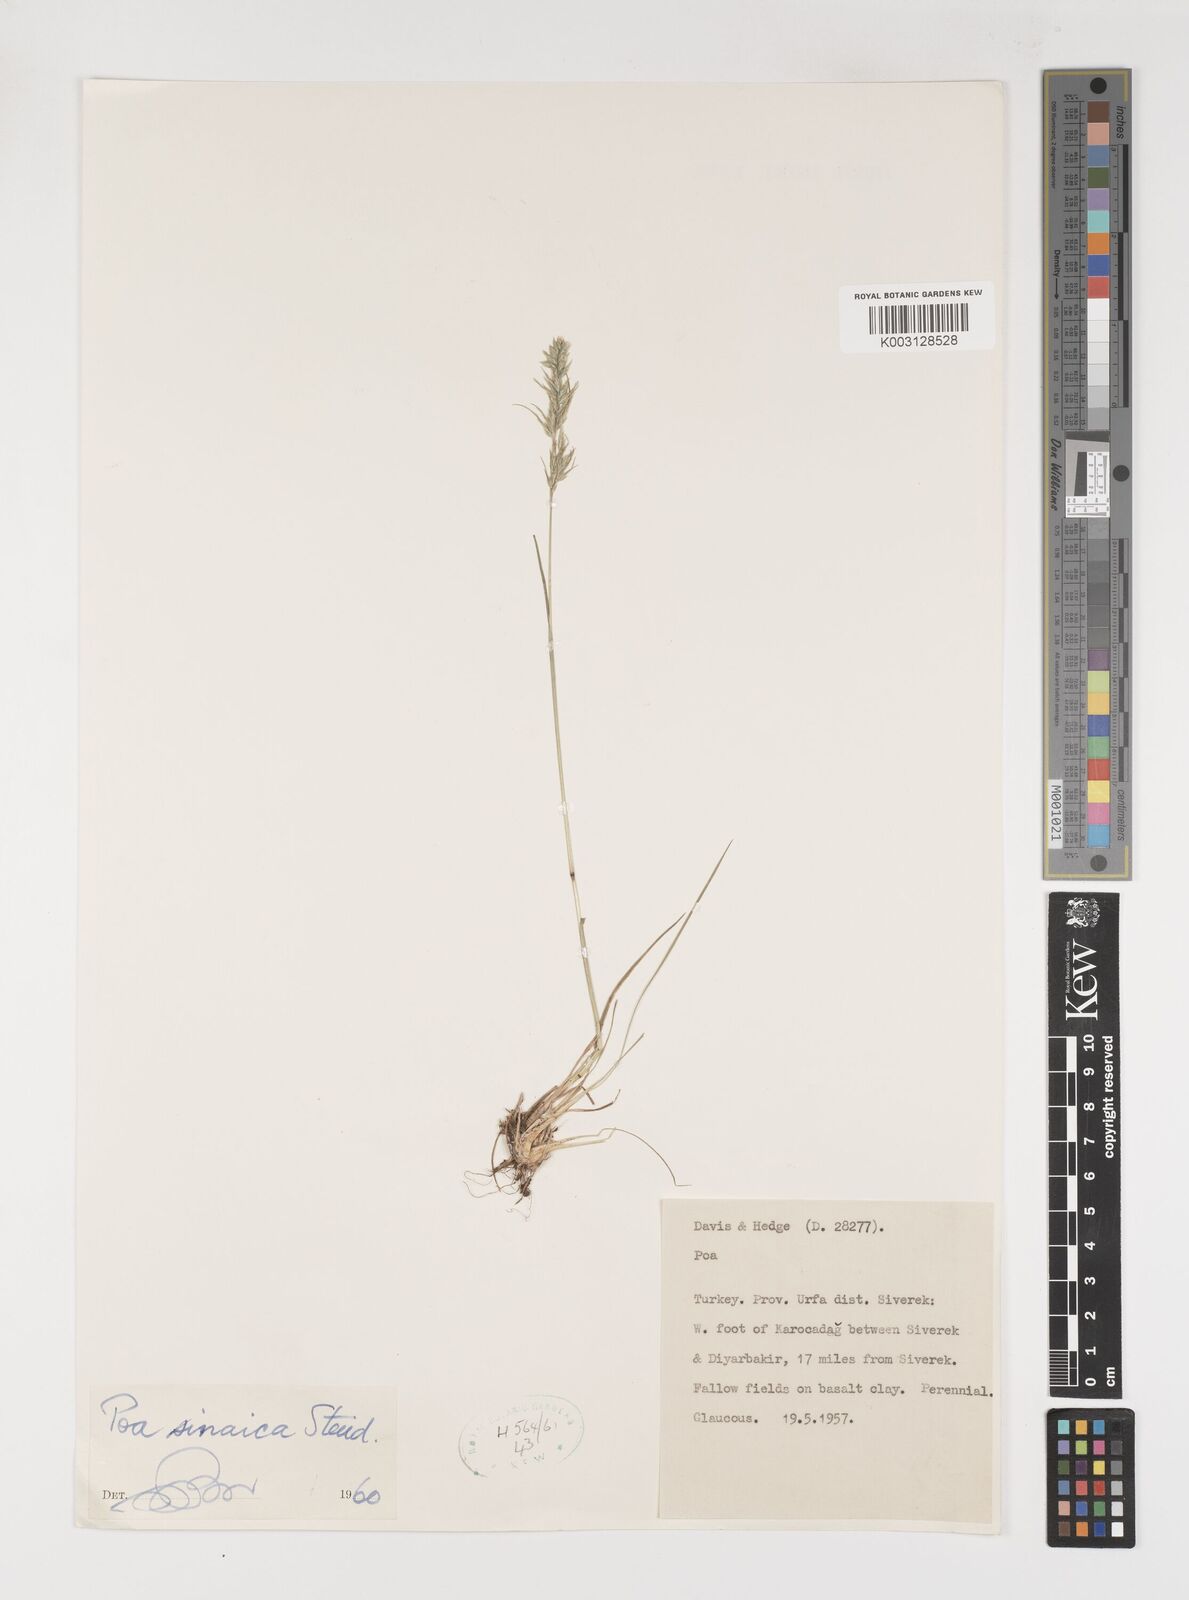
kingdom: Plantae
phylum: Tracheophyta
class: Liliopsida
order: Poales
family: Poaceae
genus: Poa
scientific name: Poa sinaica
